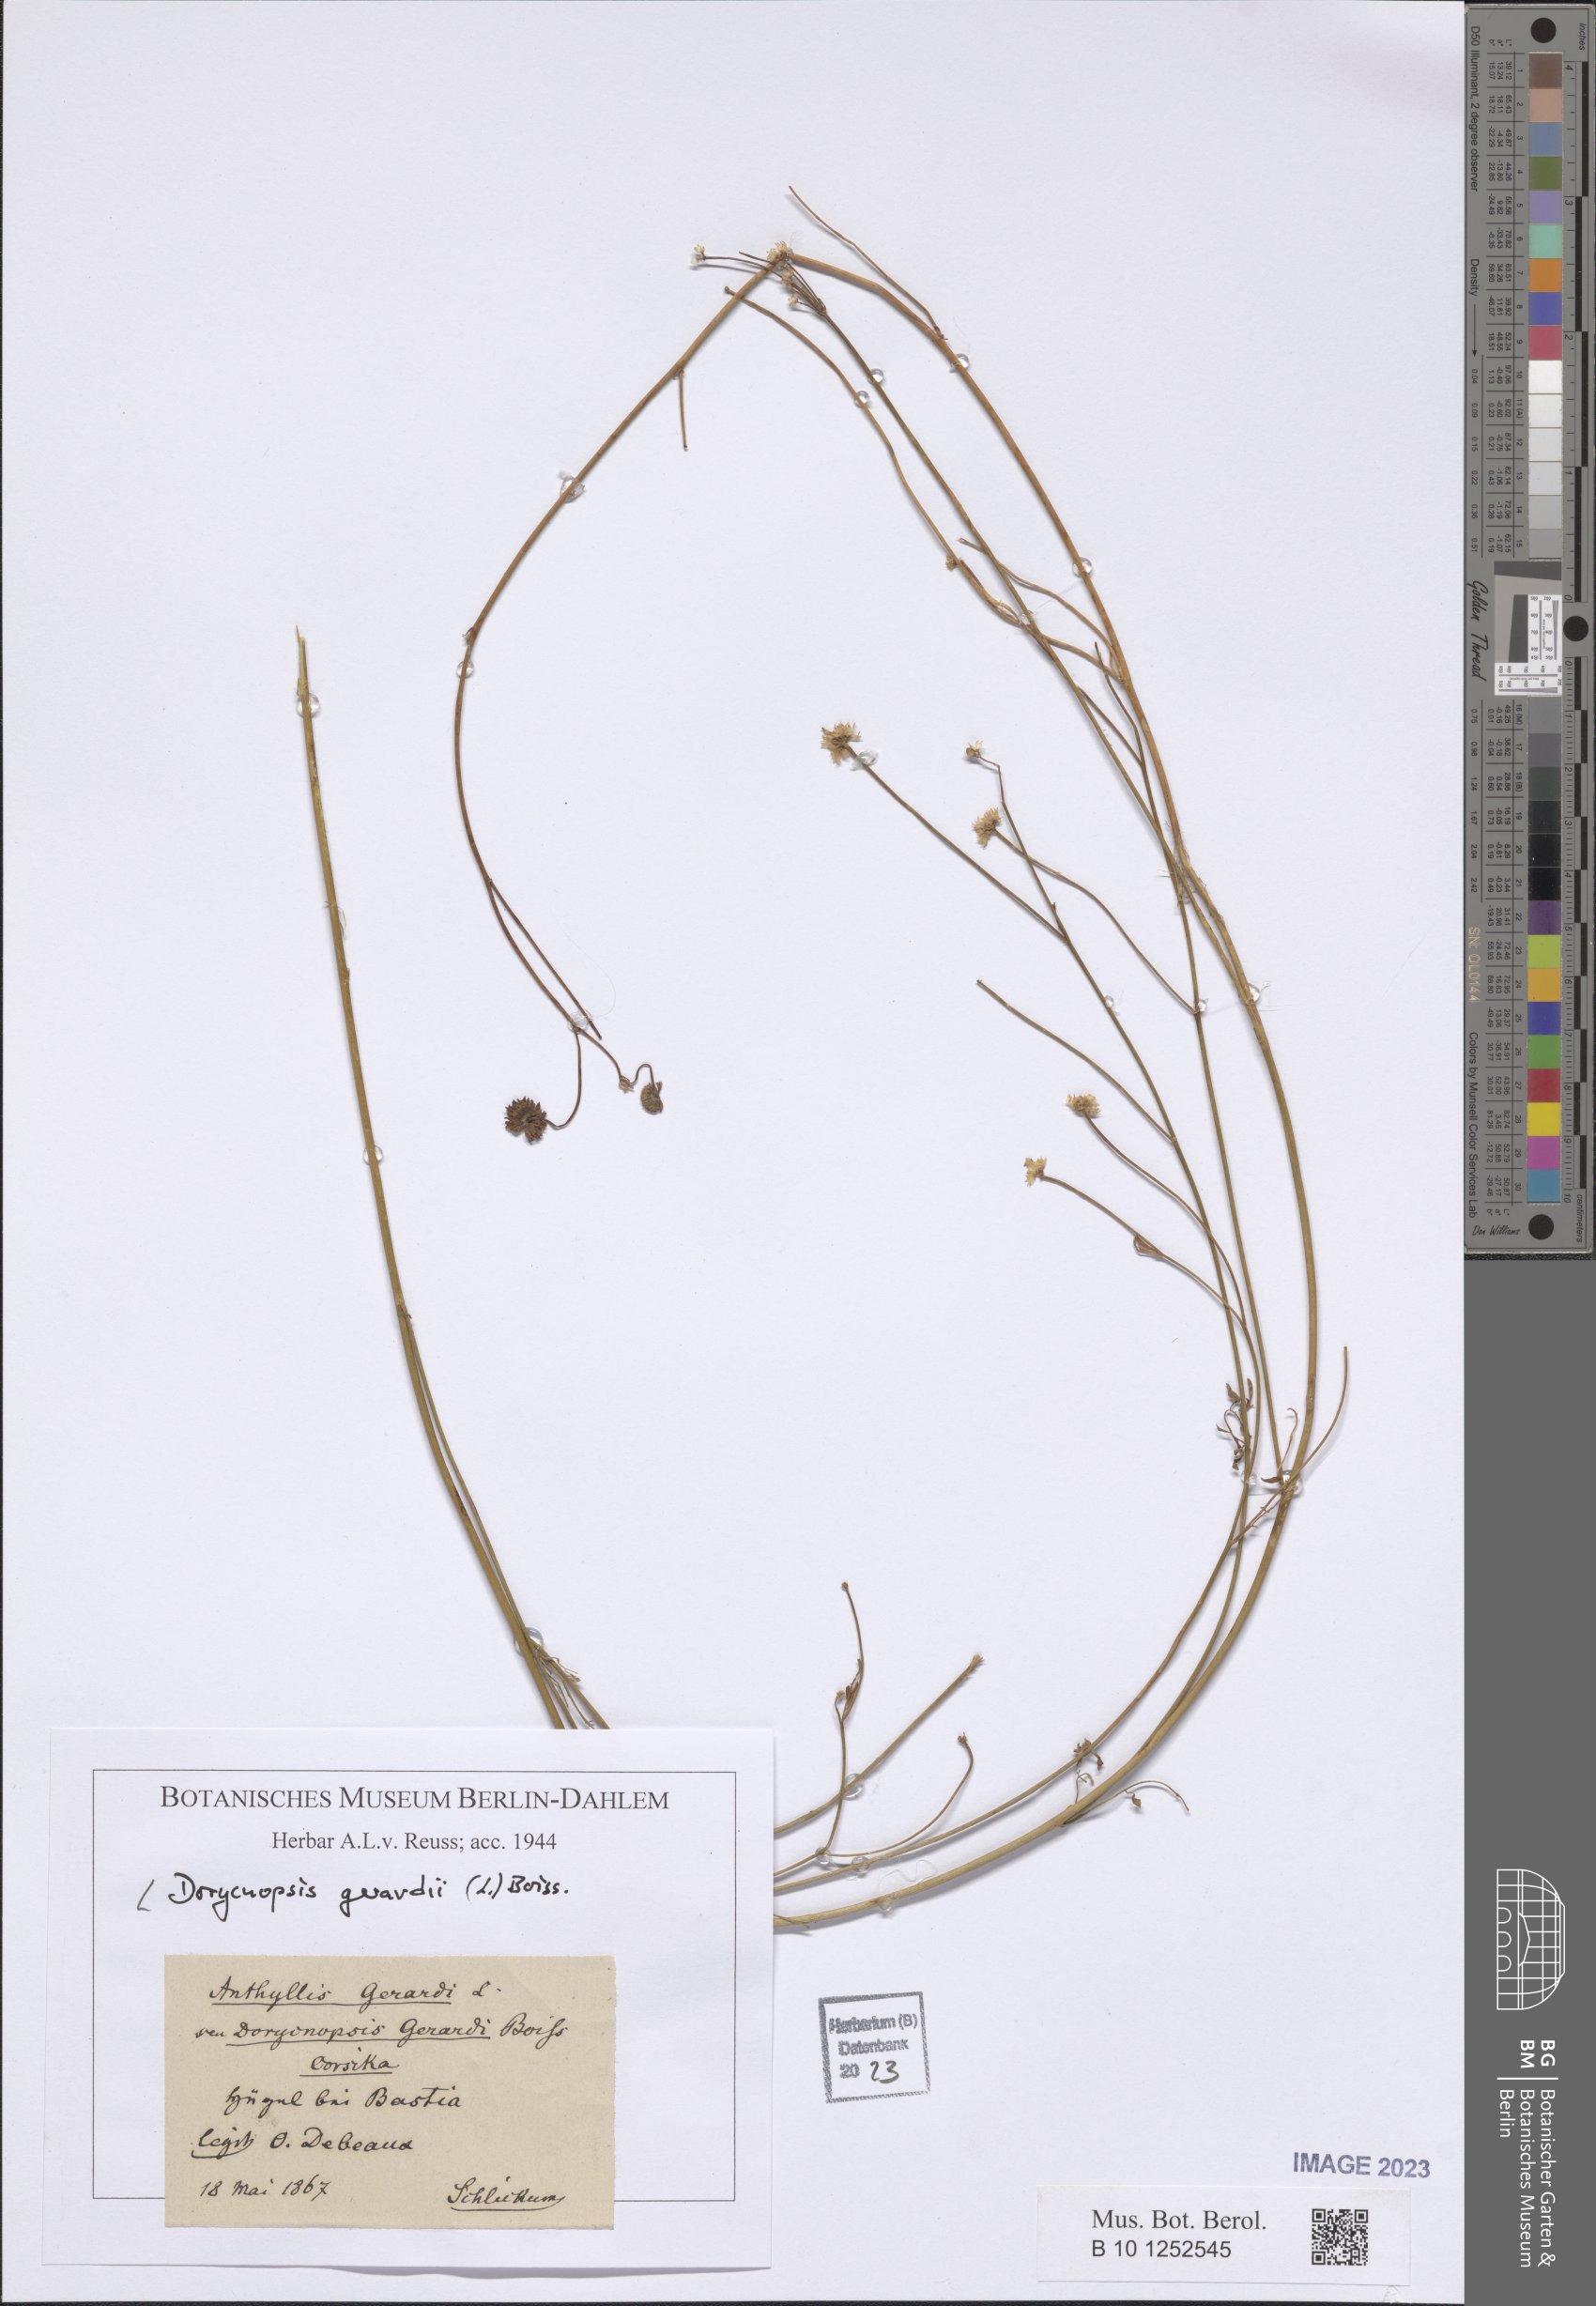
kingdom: Plantae
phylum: Tracheophyta
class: Magnoliopsida
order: Fabales
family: Fabaceae
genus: Dorycnopsis
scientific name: Dorycnopsis gerardi
